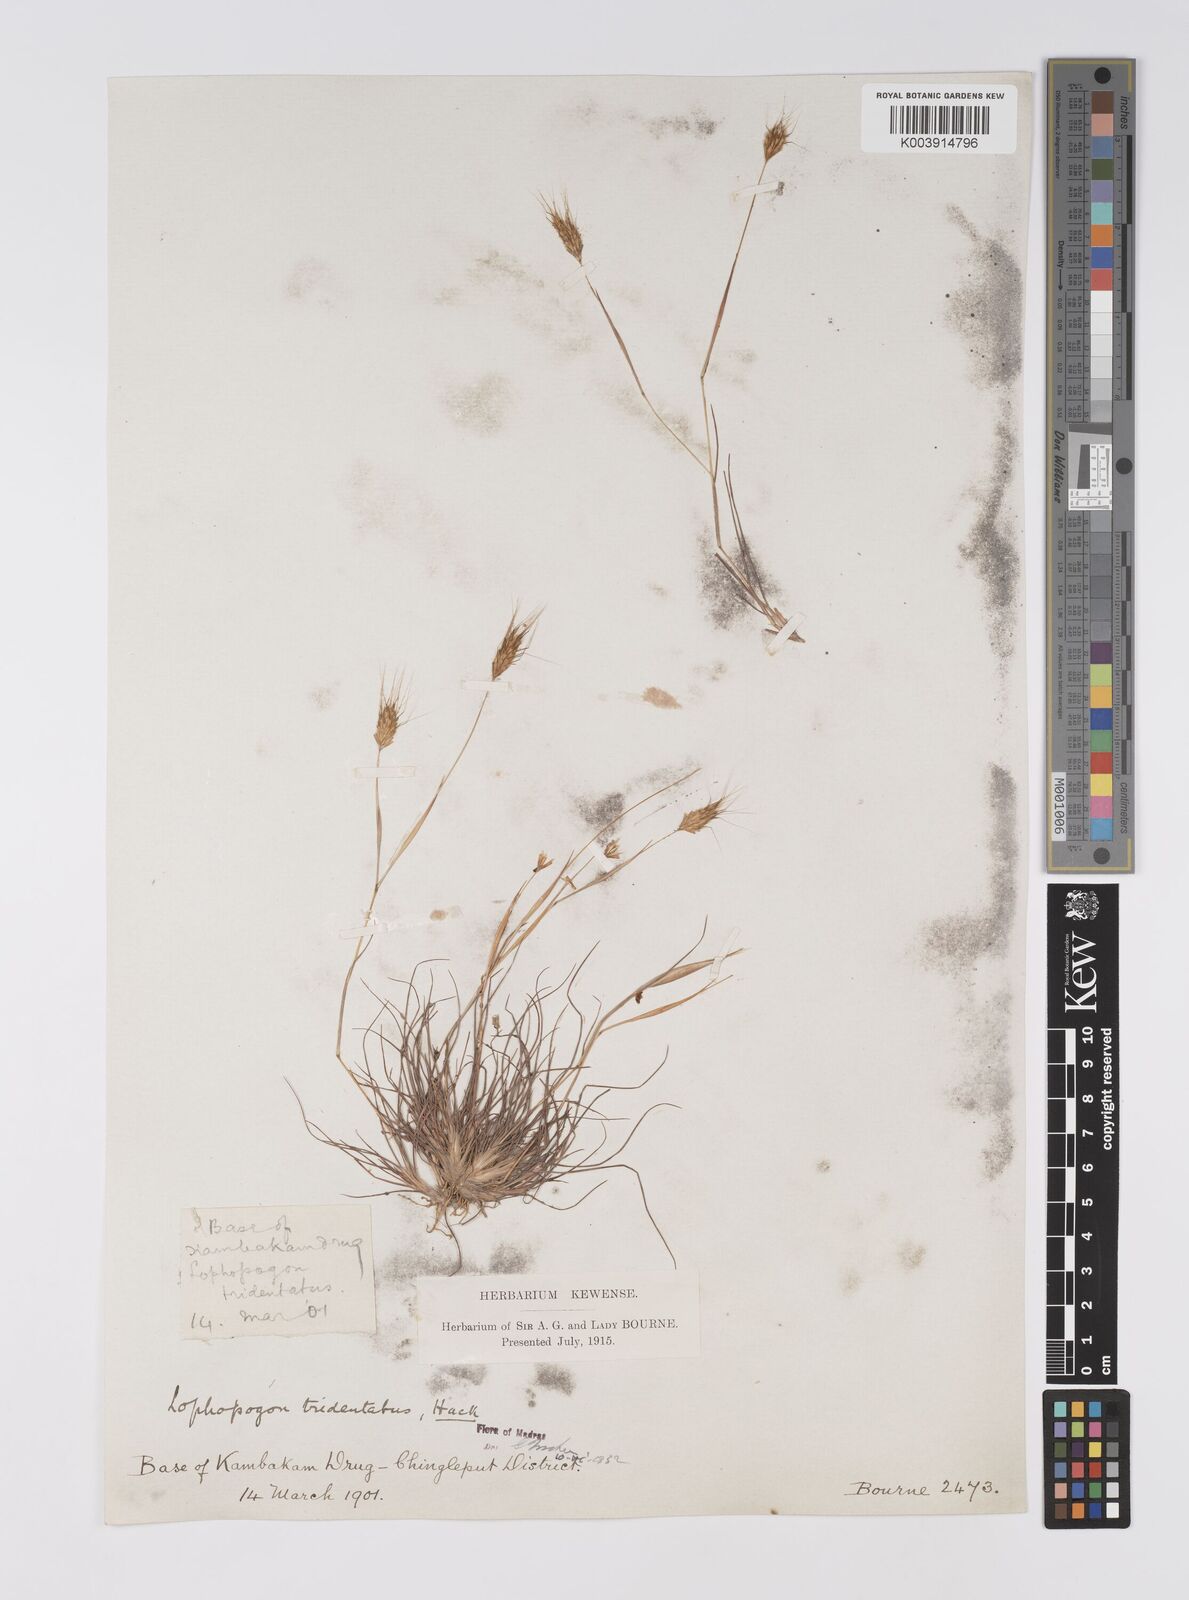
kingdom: Plantae
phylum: Tracheophyta
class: Liliopsida
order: Poales
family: Poaceae
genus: Lophopogon
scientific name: Lophopogon tridentatus
